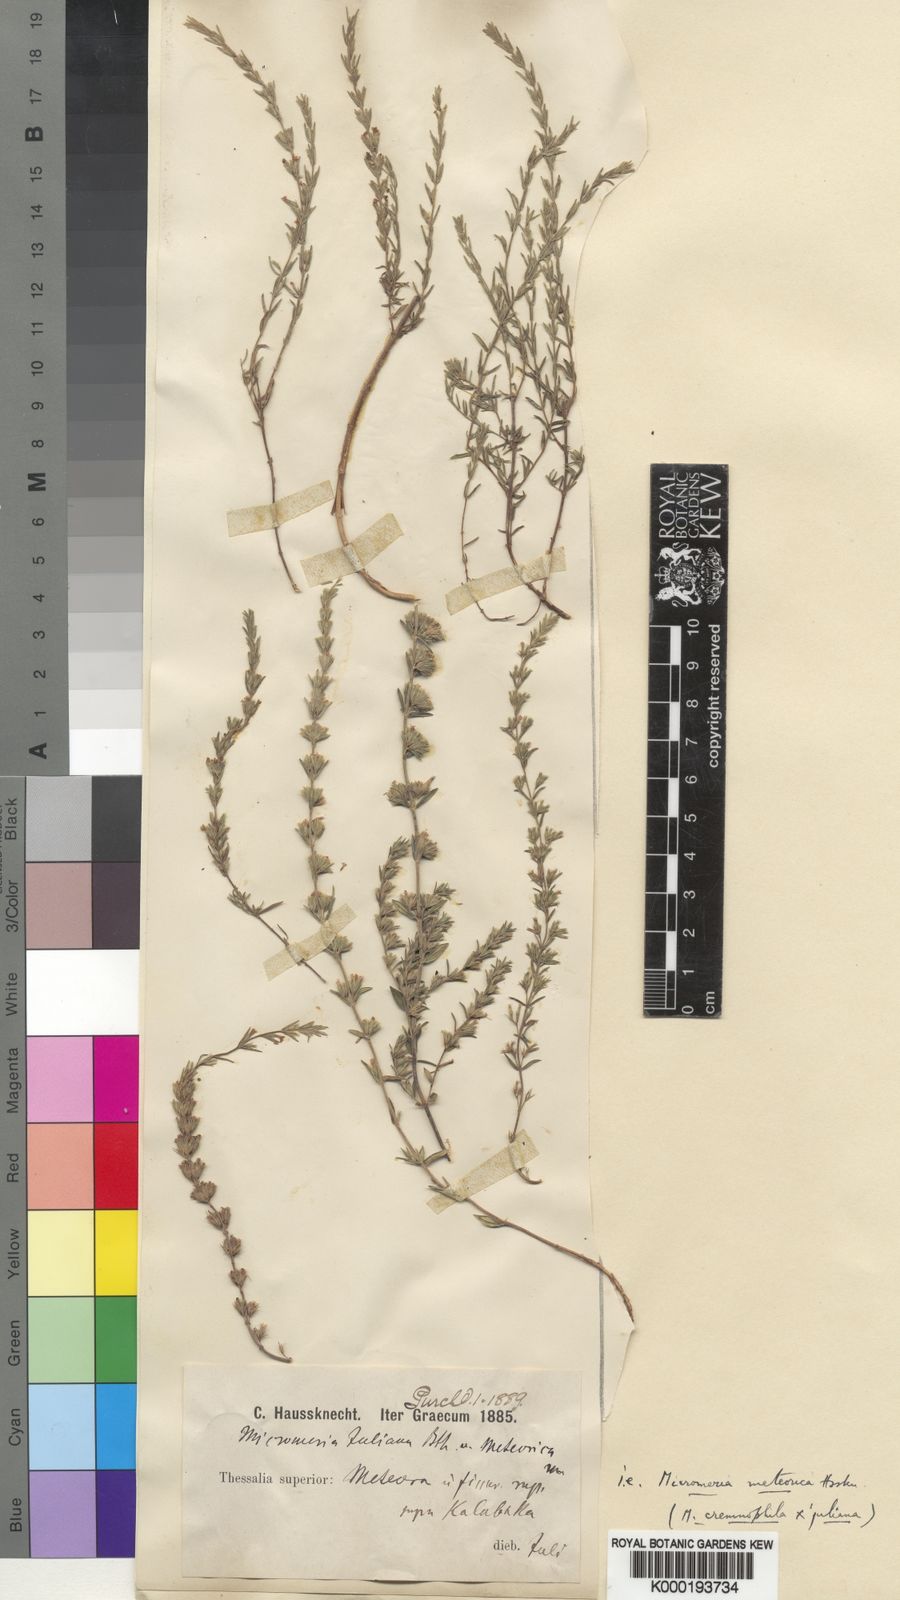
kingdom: Plantae
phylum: Tracheophyta
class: Magnoliopsida
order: Lamiales
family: Lamiaceae
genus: Micromeria
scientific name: Micromeria
